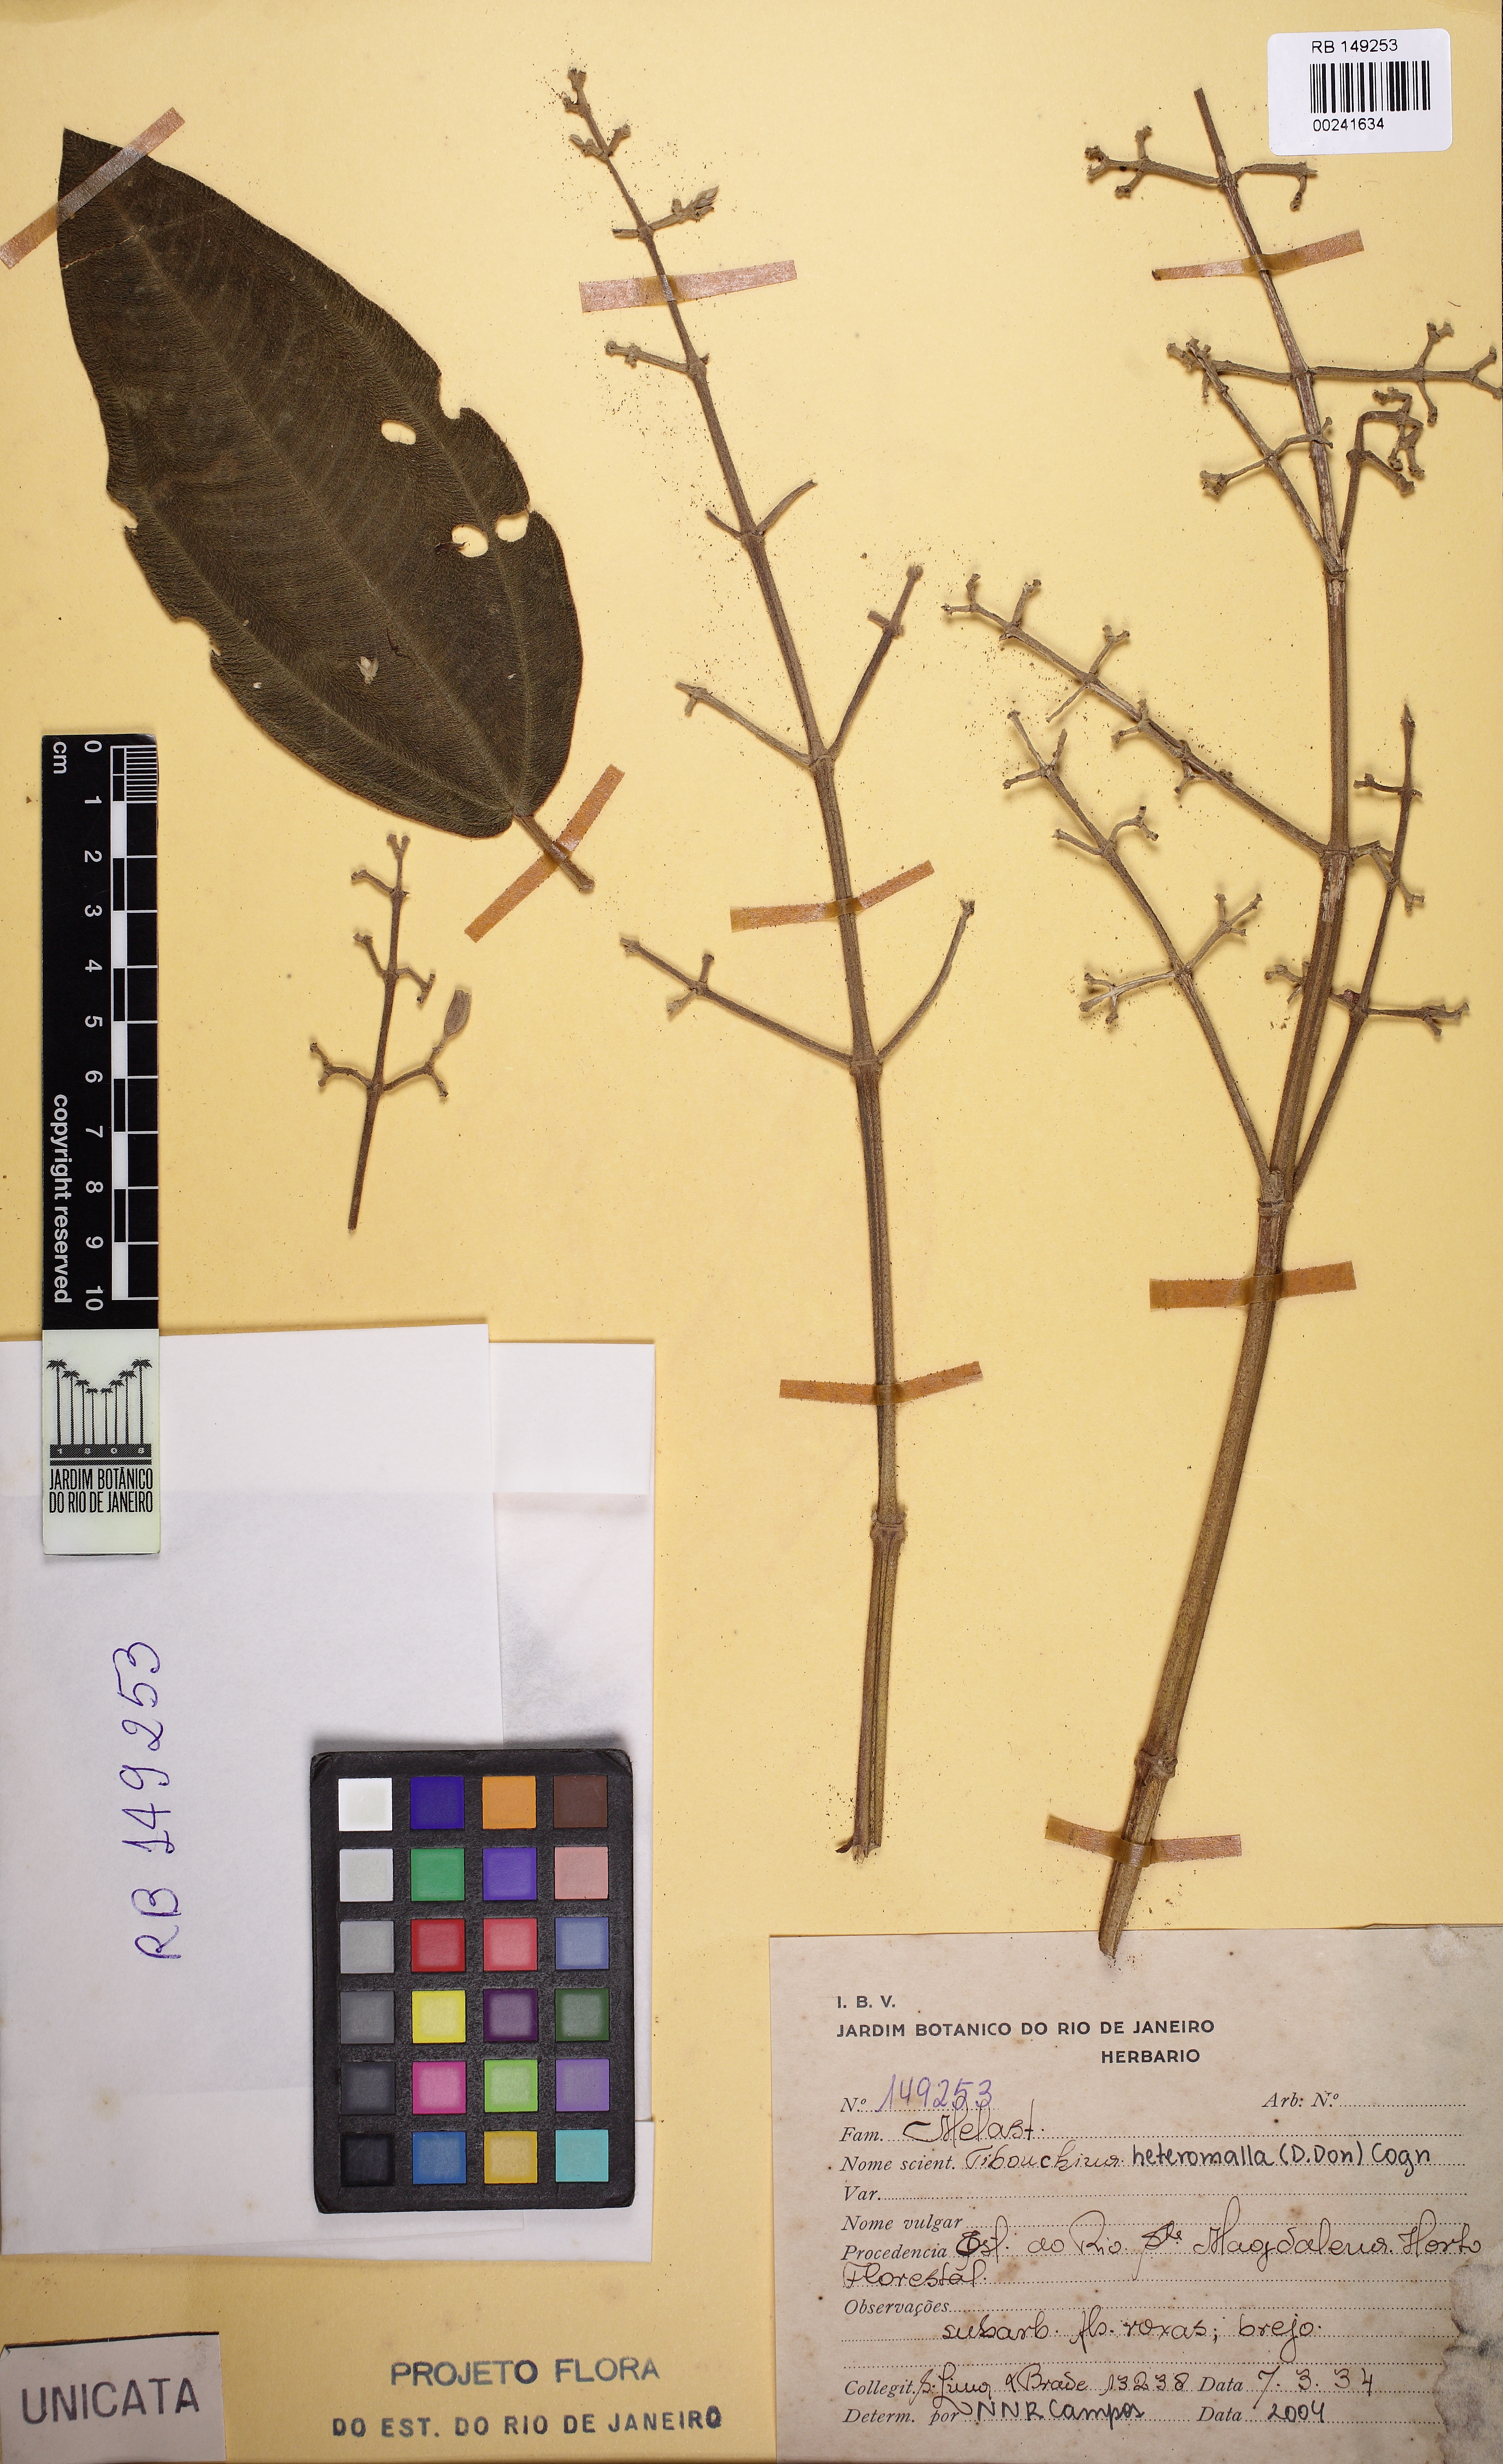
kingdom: Plantae
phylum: Tracheophyta
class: Magnoliopsida
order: Myrtales
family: Melastomataceae
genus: Pleroma
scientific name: Pleroma heteromallum
